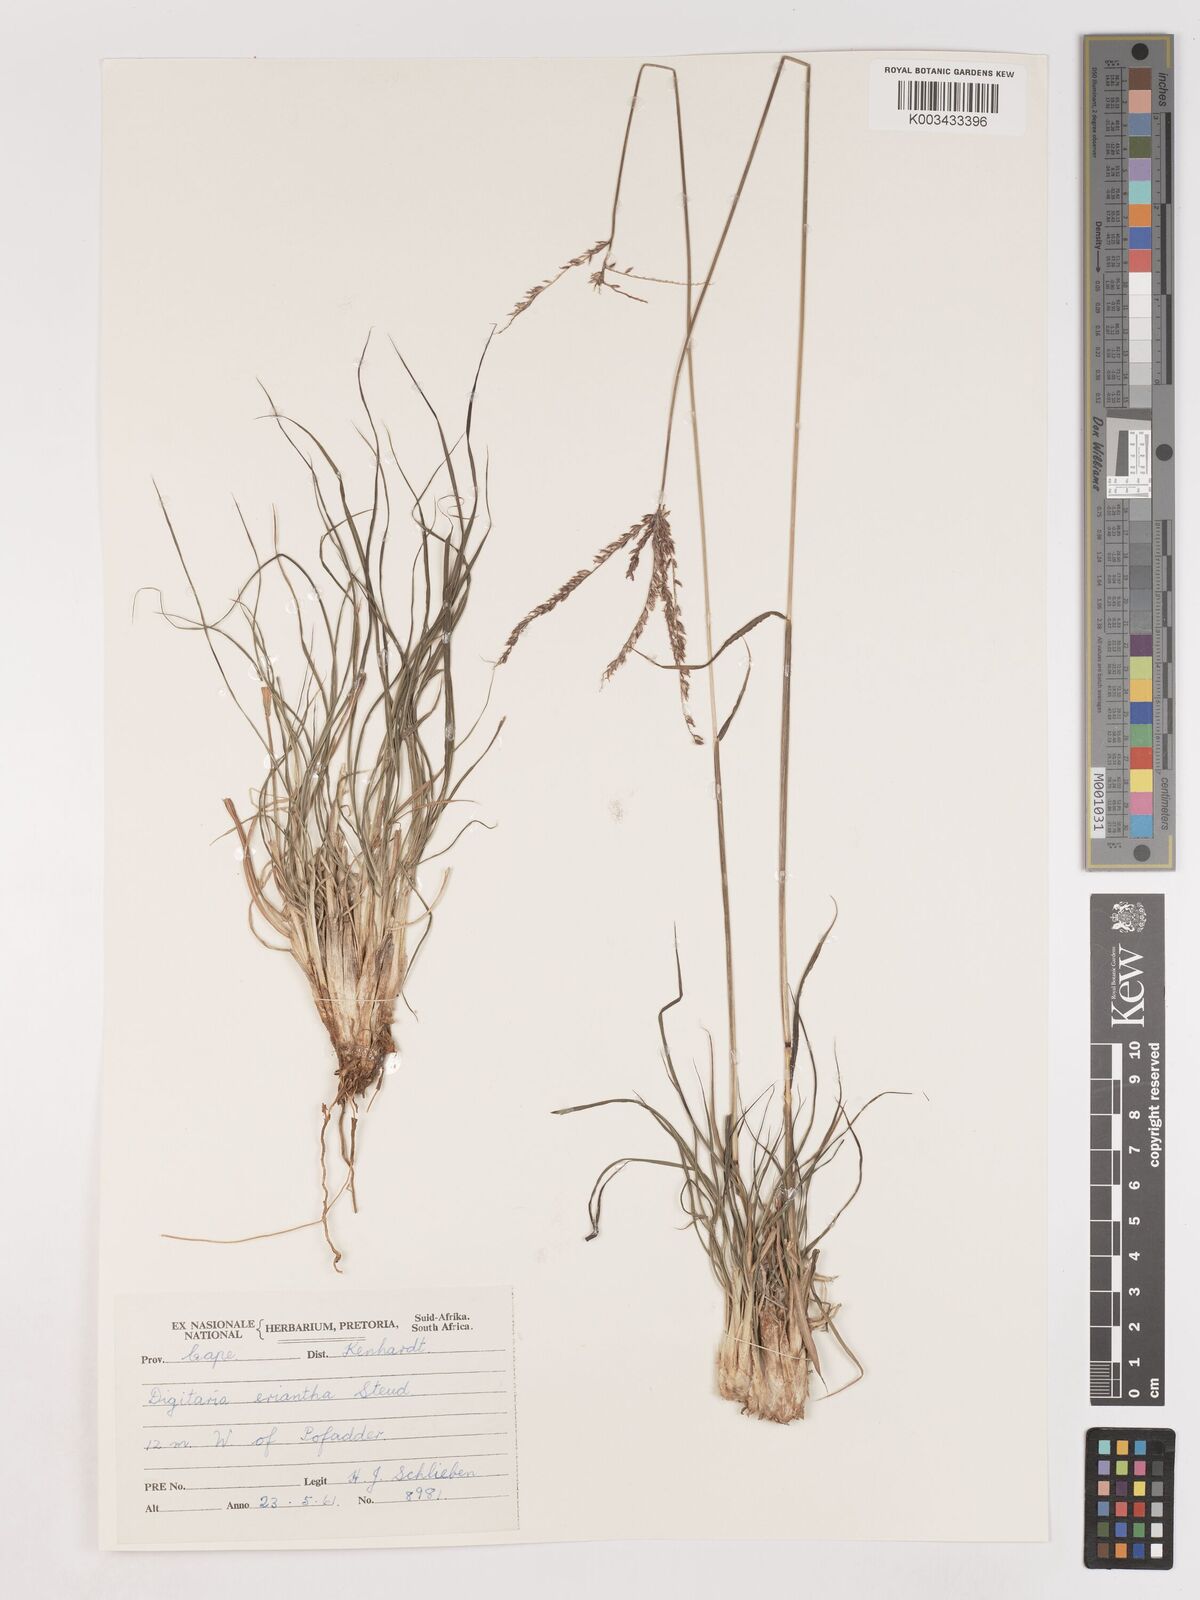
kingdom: Plantae
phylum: Tracheophyta
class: Liliopsida
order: Poales
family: Poaceae
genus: Digitaria
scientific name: Digitaria eriantha
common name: Digitgrass
